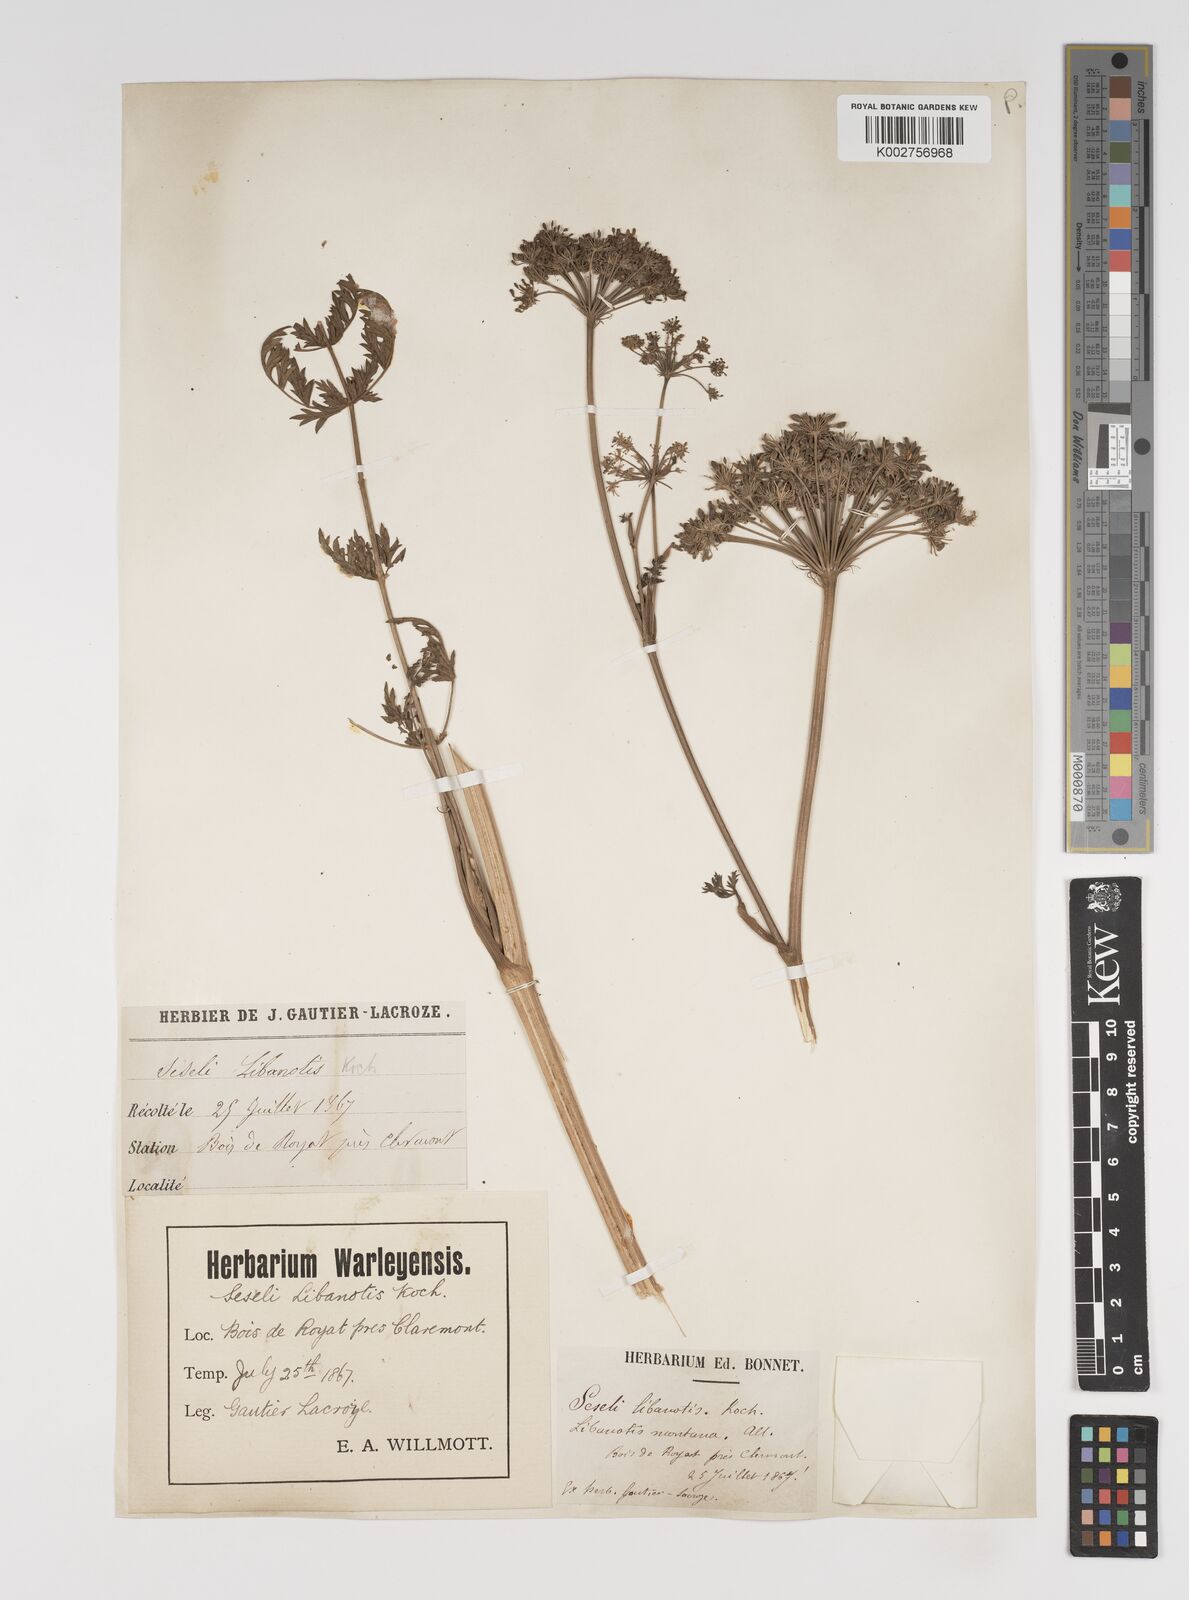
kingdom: Plantae
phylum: Tracheophyta
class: Magnoliopsida
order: Apiales
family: Apiaceae
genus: Seseli
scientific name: Seseli libanotis
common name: Mooncarrot
